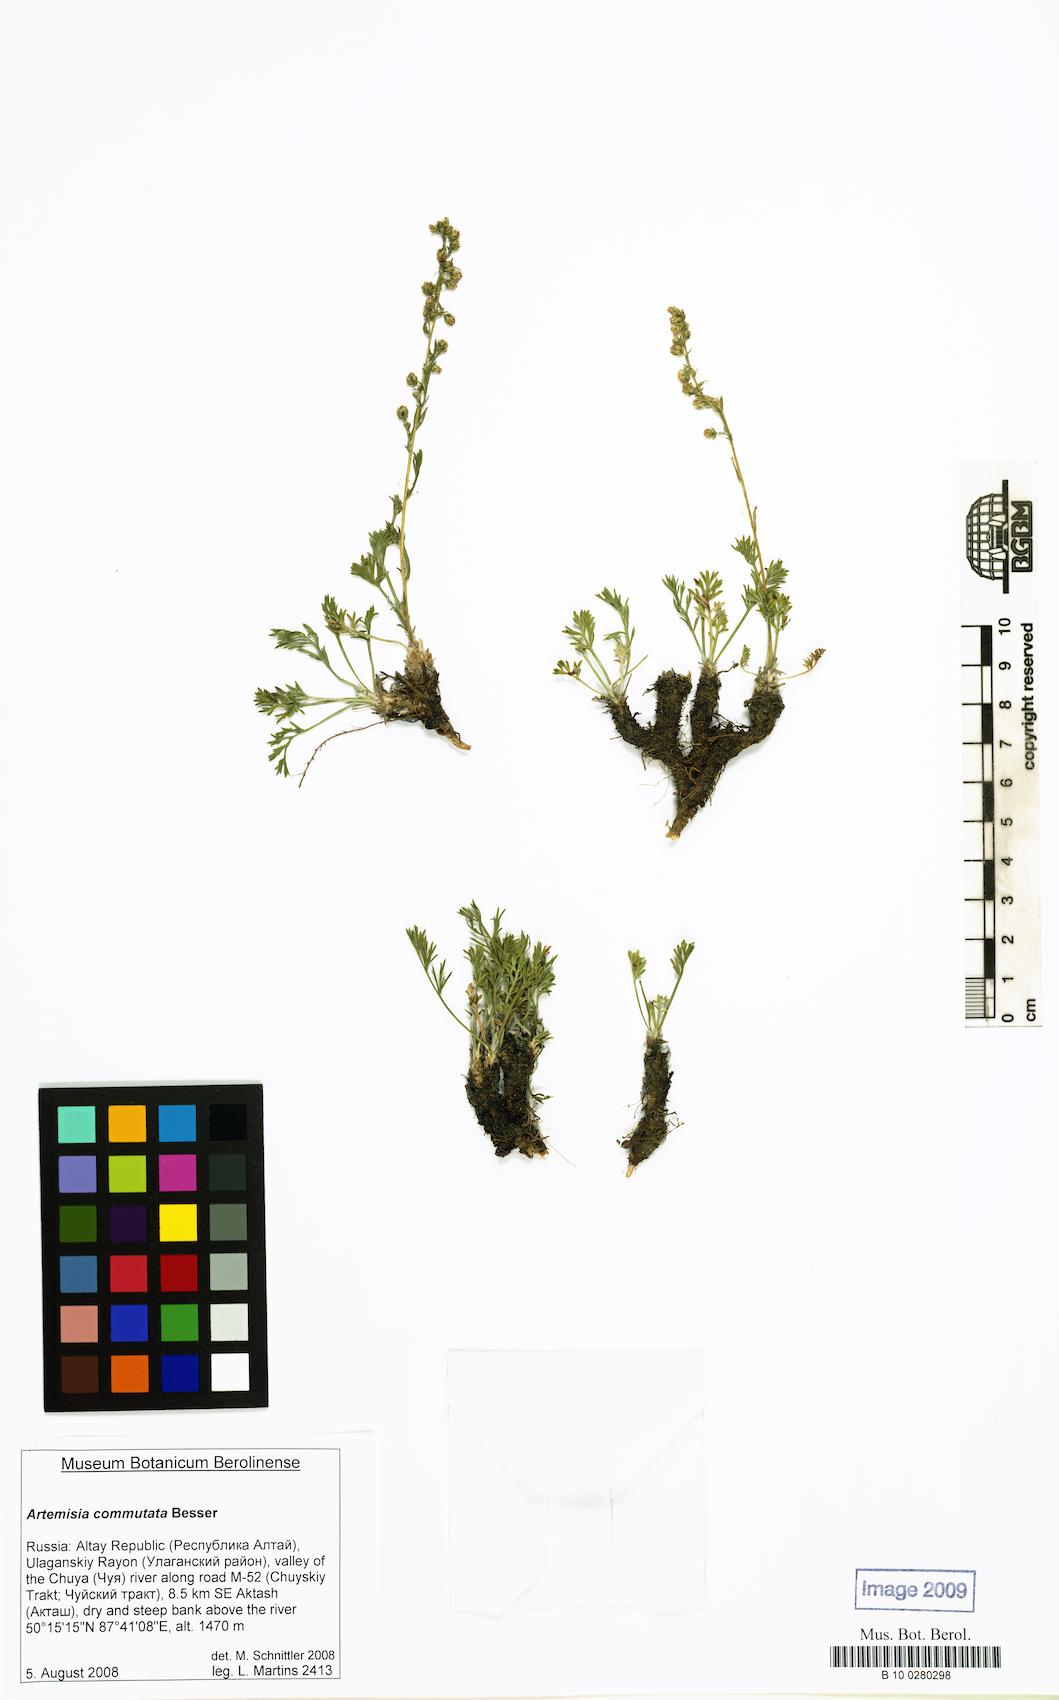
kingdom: Plantae
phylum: Tracheophyta
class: Magnoliopsida
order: Asterales
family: Asteraceae
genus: Artemisia
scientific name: Artemisia pubescens
